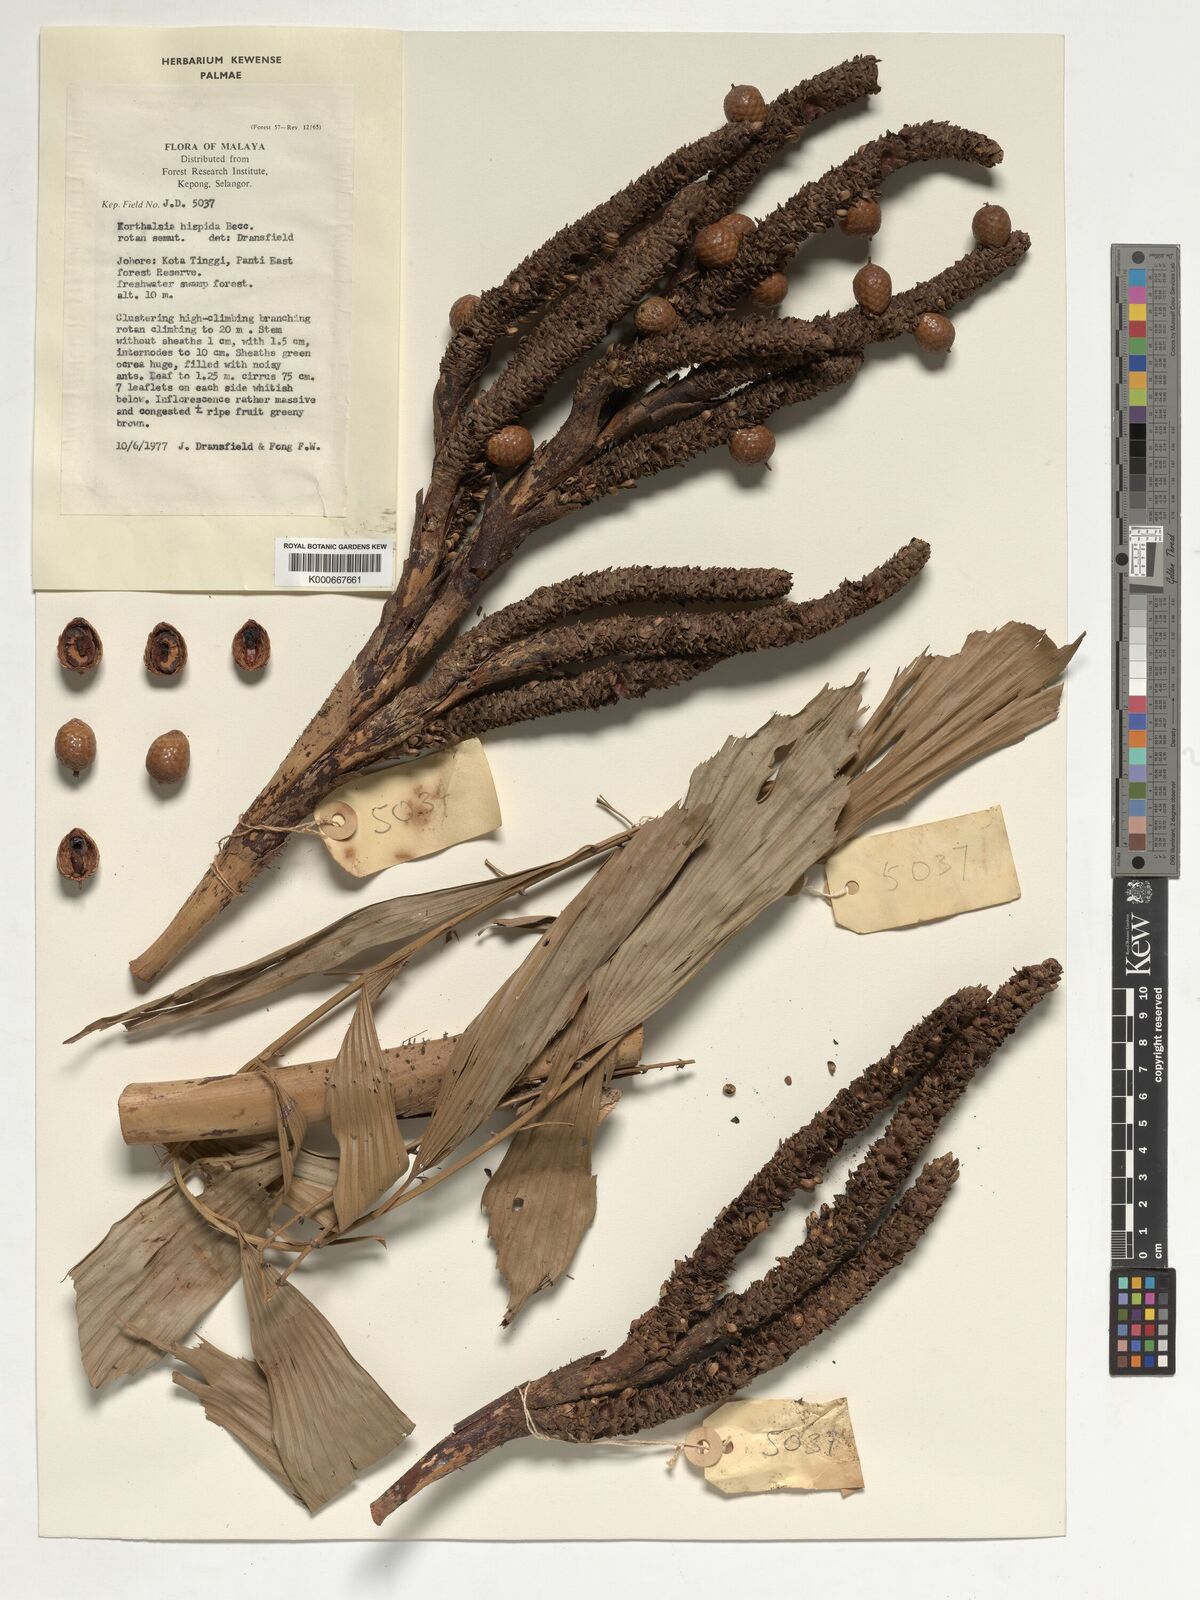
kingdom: Plantae
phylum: Tracheophyta
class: Liliopsida
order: Arecales
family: Arecaceae
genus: Korthalsia
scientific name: Korthalsia hispida
